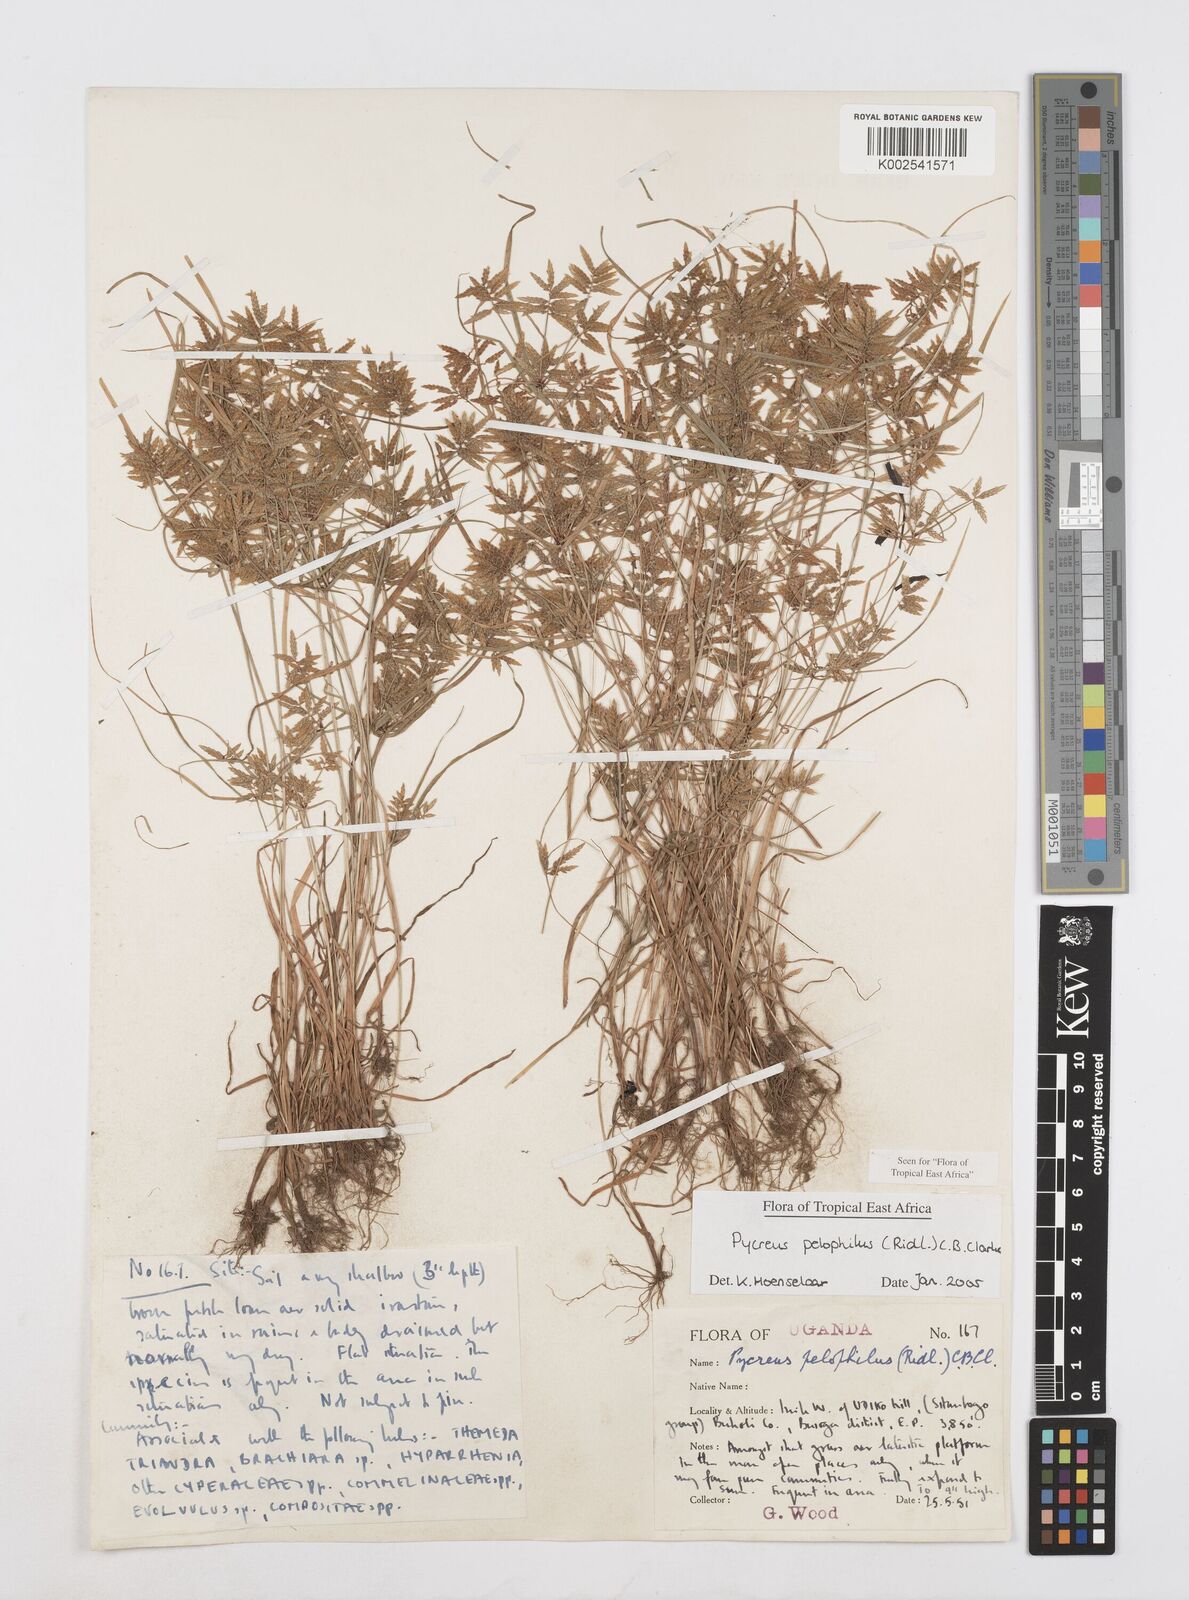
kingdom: Plantae
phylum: Tracheophyta
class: Liliopsida
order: Poales
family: Cyperaceae
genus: Cyperus
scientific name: Cyperus pelophilus
